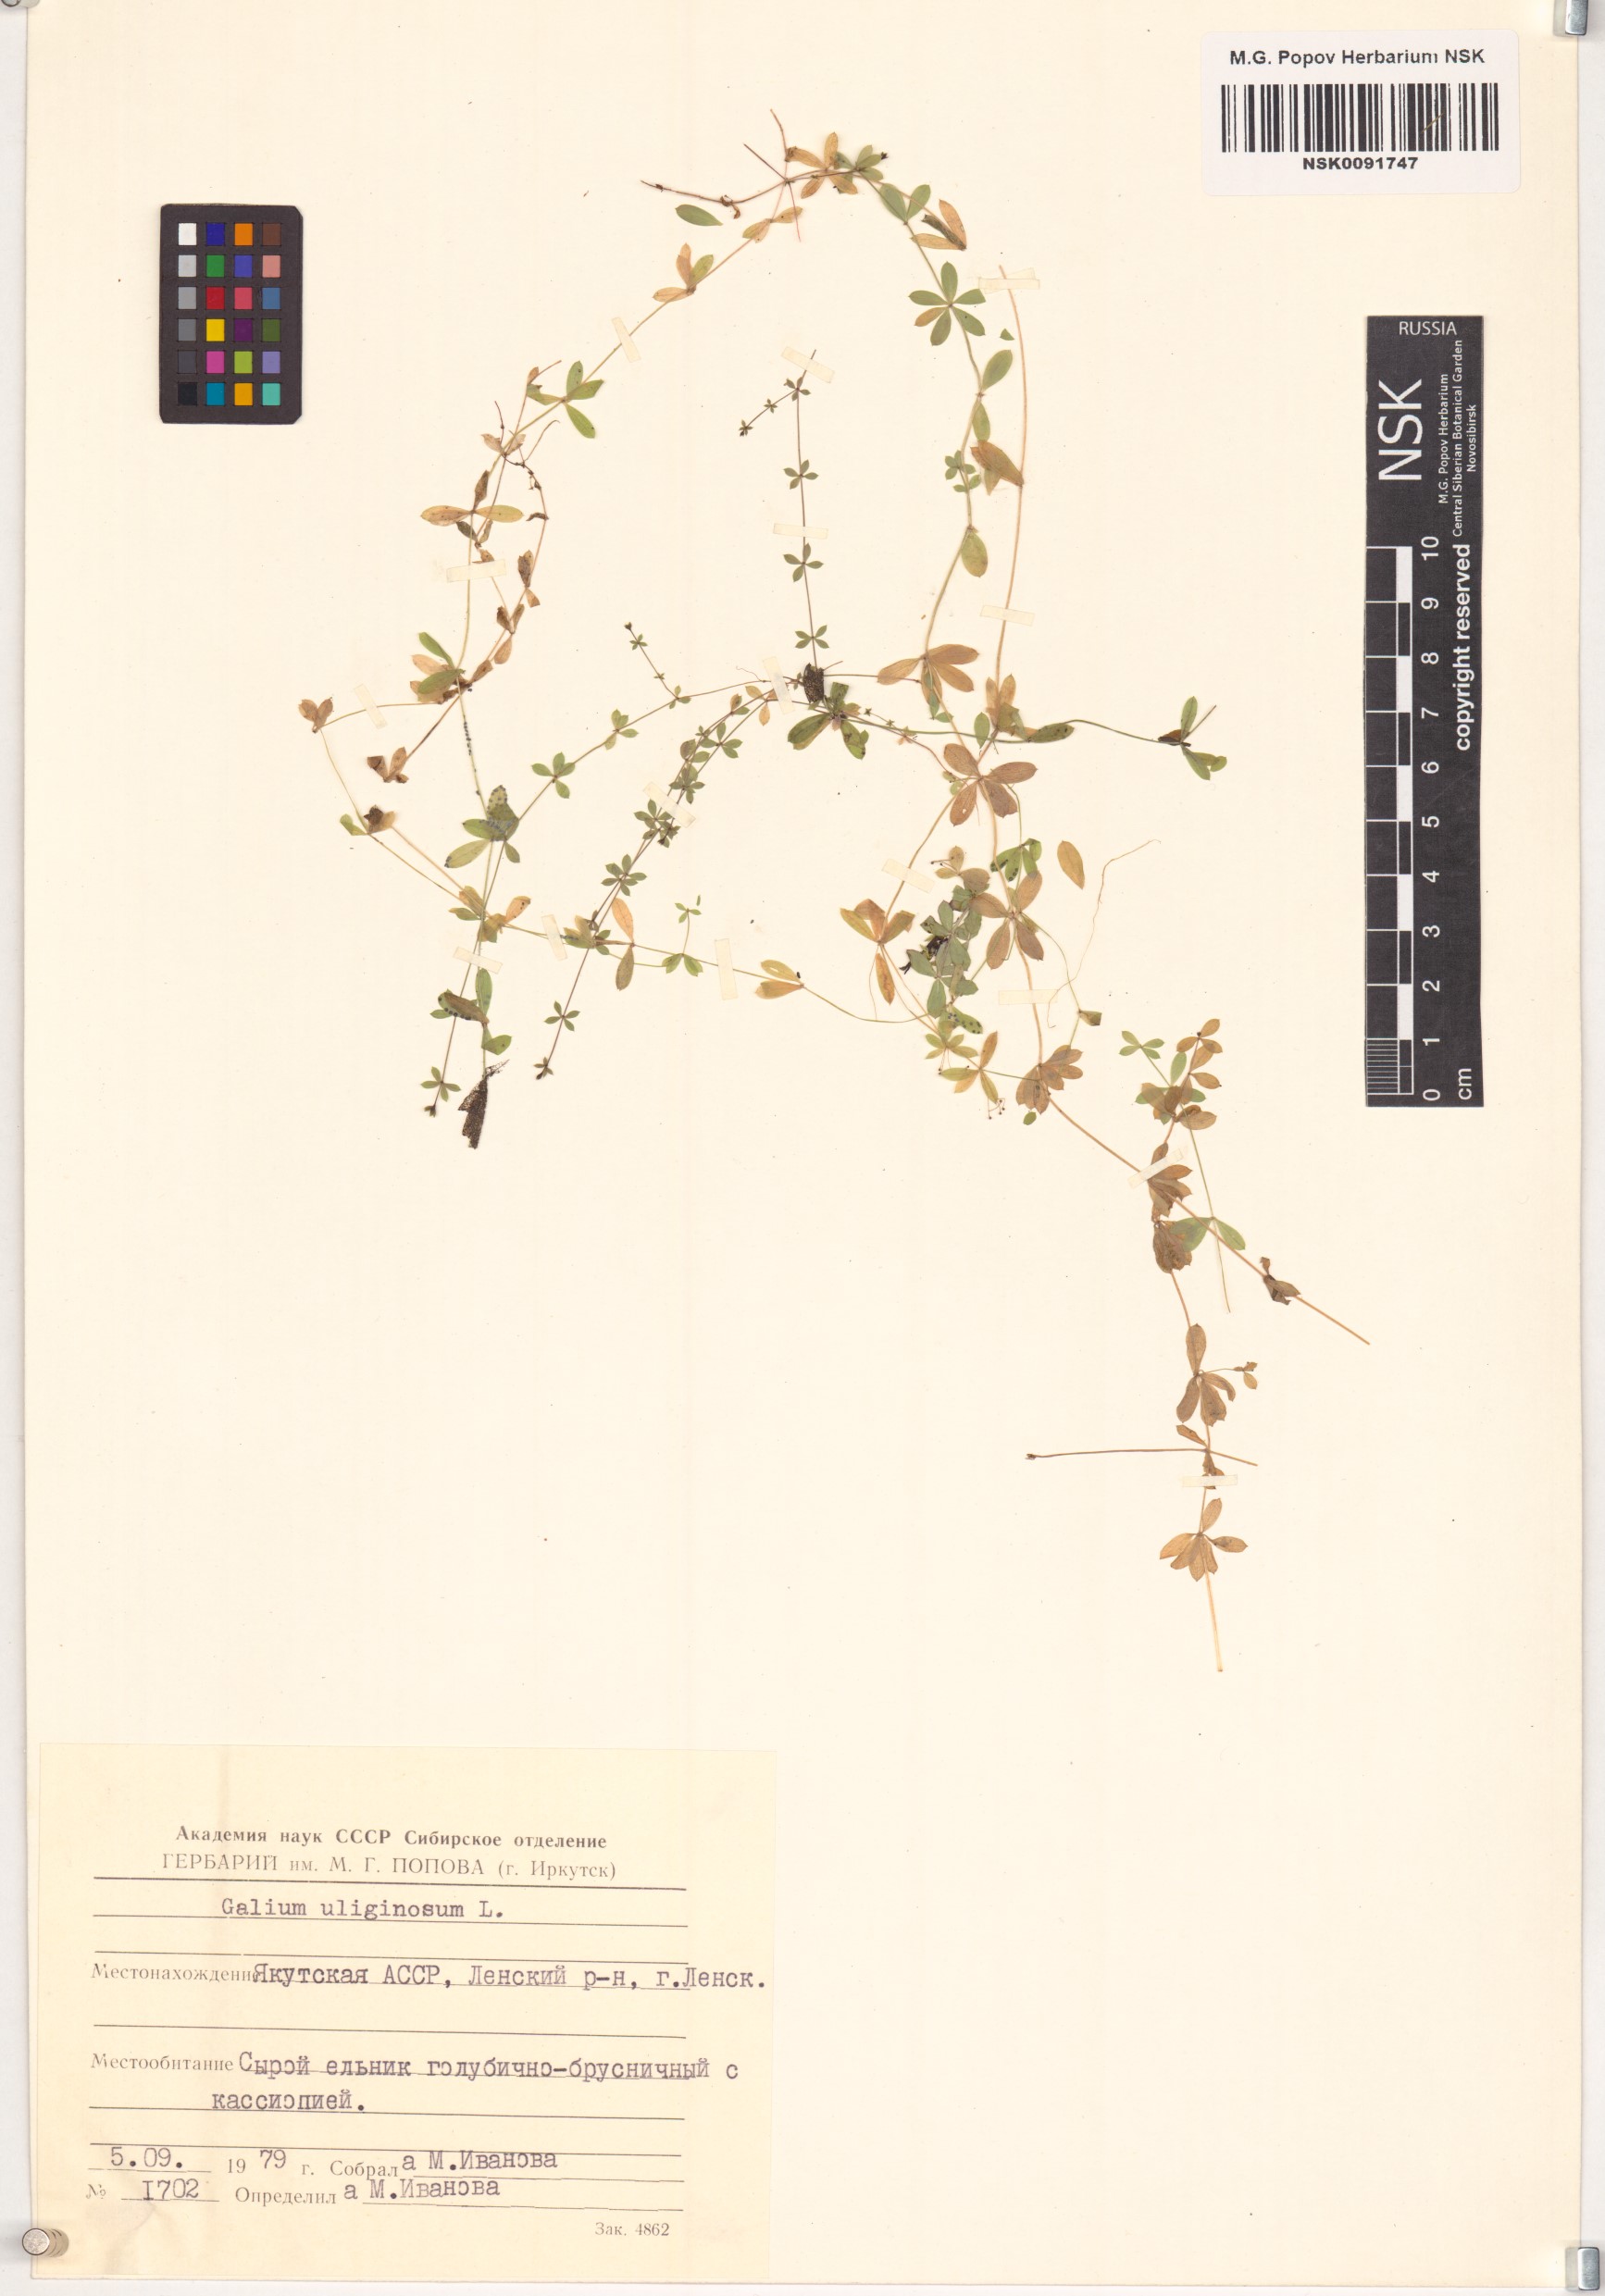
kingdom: Plantae
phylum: Tracheophyta
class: Magnoliopsida
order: Gentianales
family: Rubiaceae
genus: Galium
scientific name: Galium uliginosum
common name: Fen bedstraw
